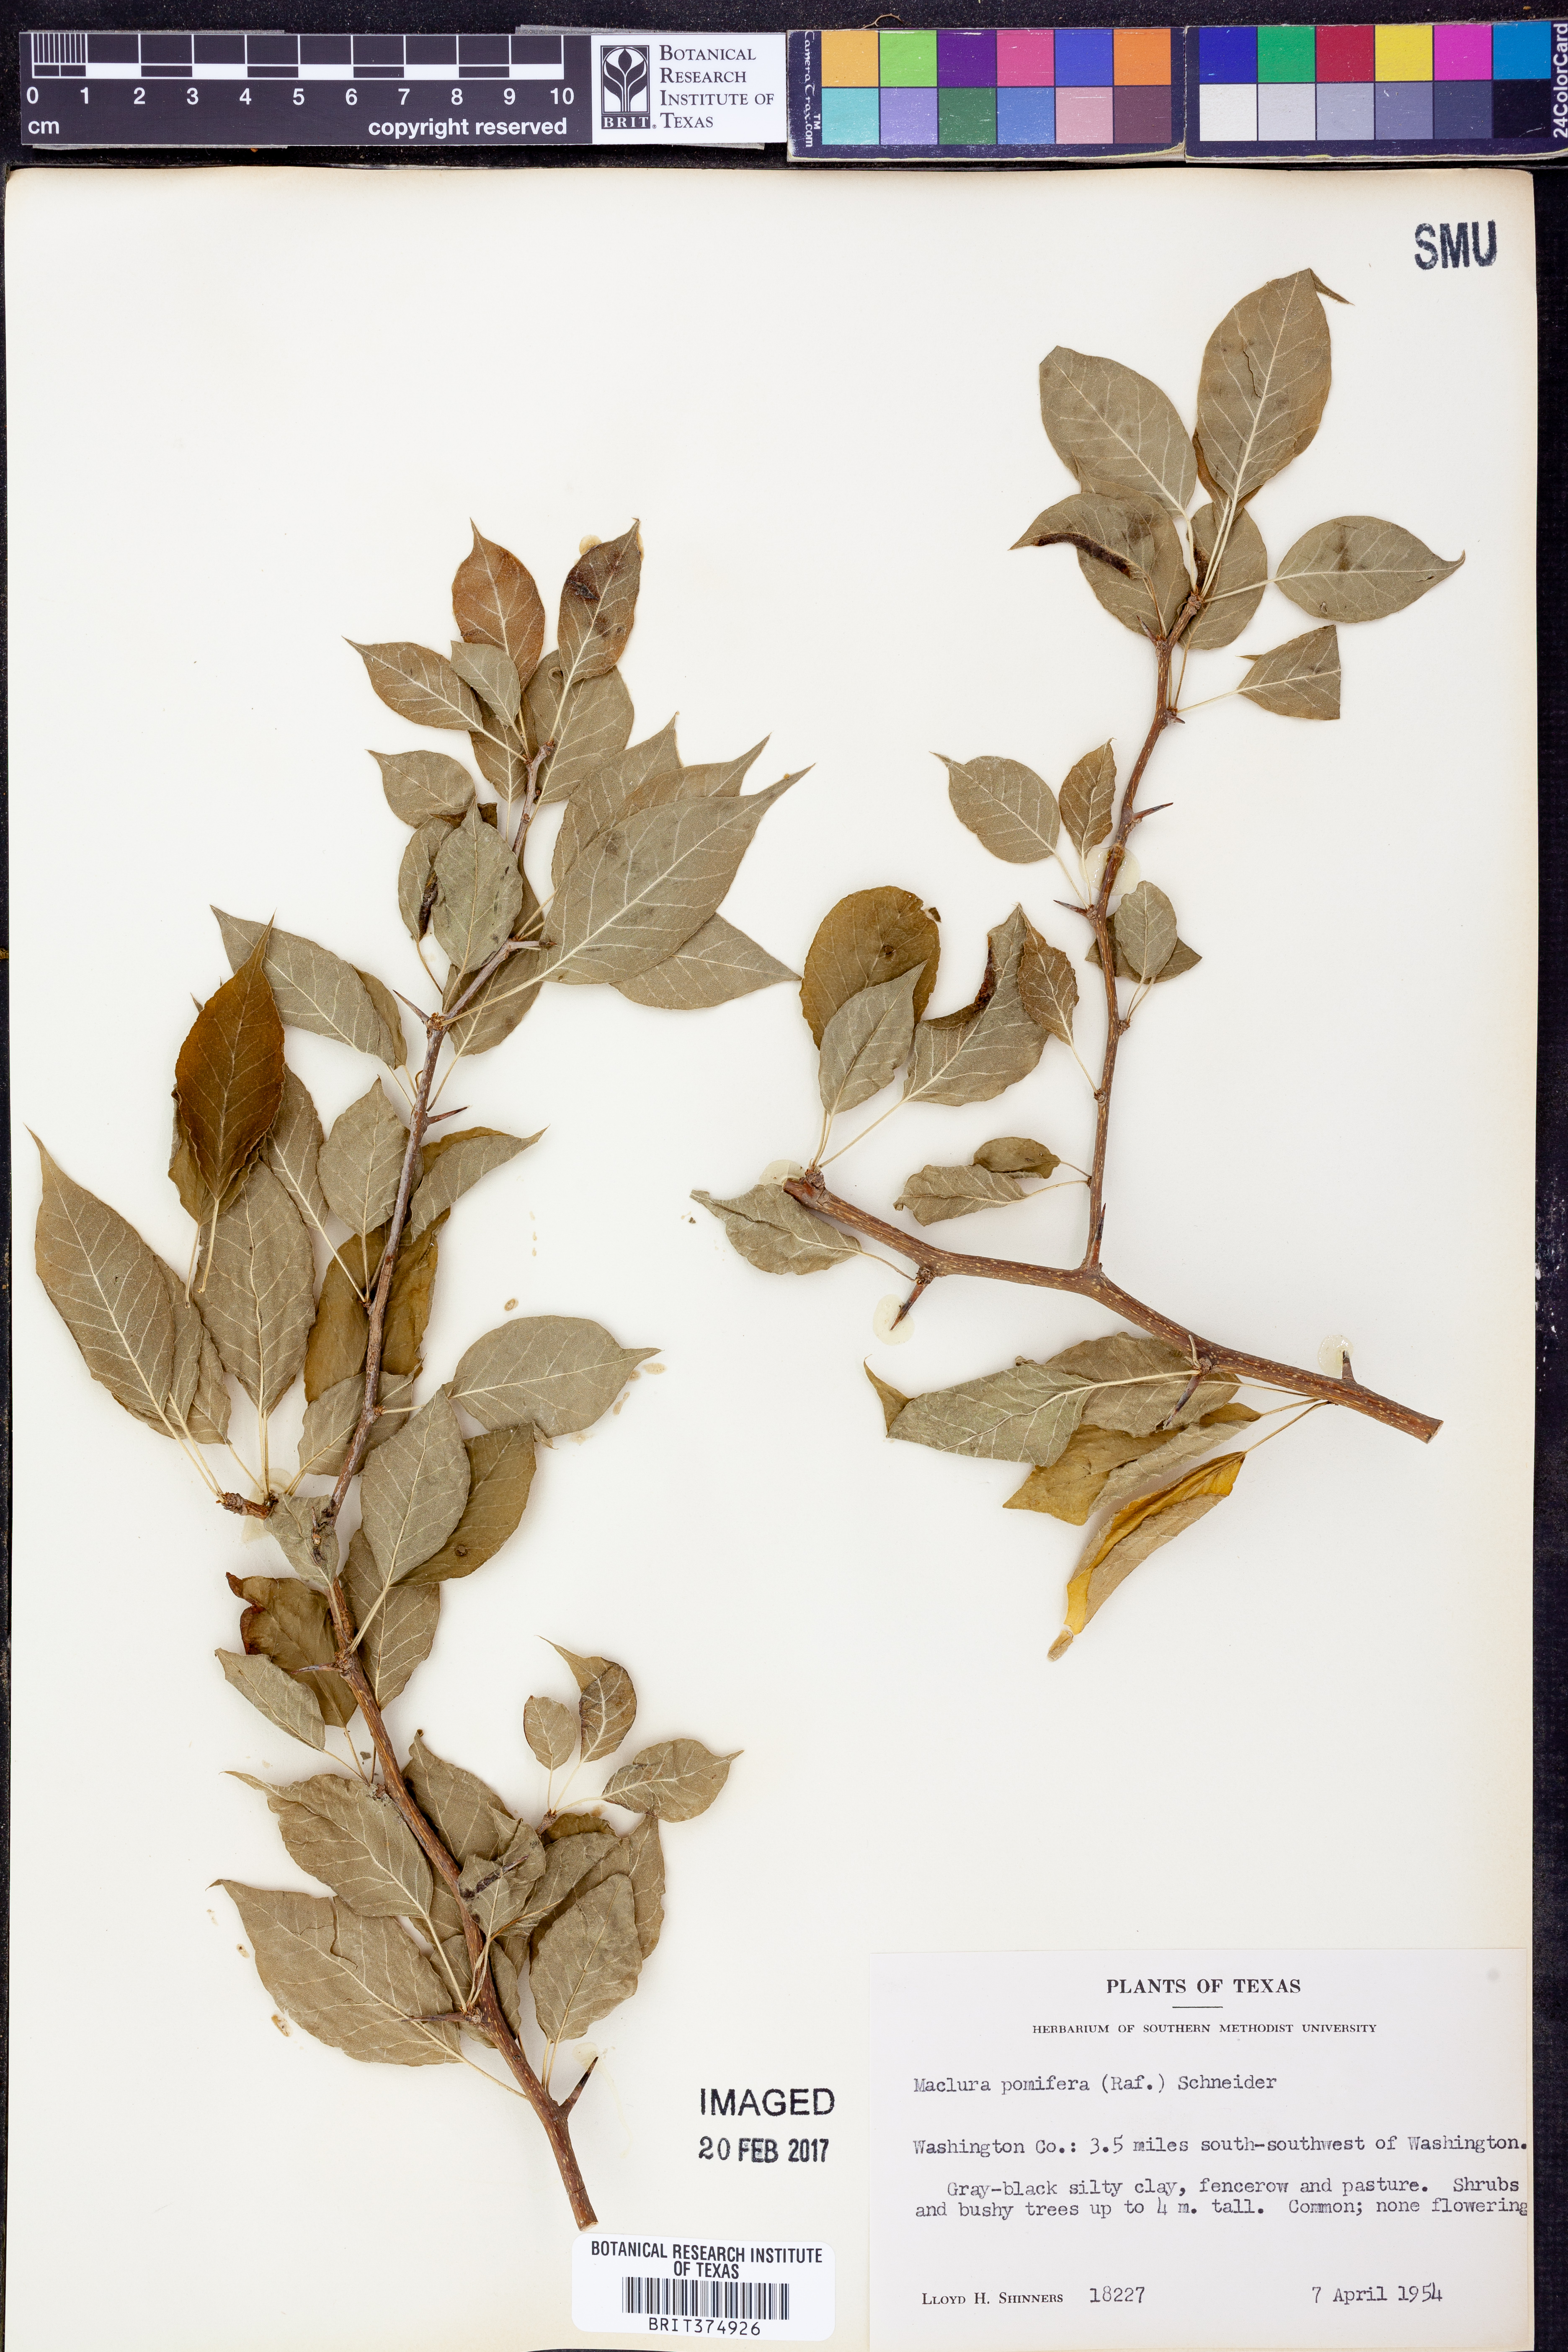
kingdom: Plantae
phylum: Tracheophyta
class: Magnoliopsida
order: Rosales
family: Moraceae
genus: Maclura
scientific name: Maclura pomifera
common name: Osage-orange
